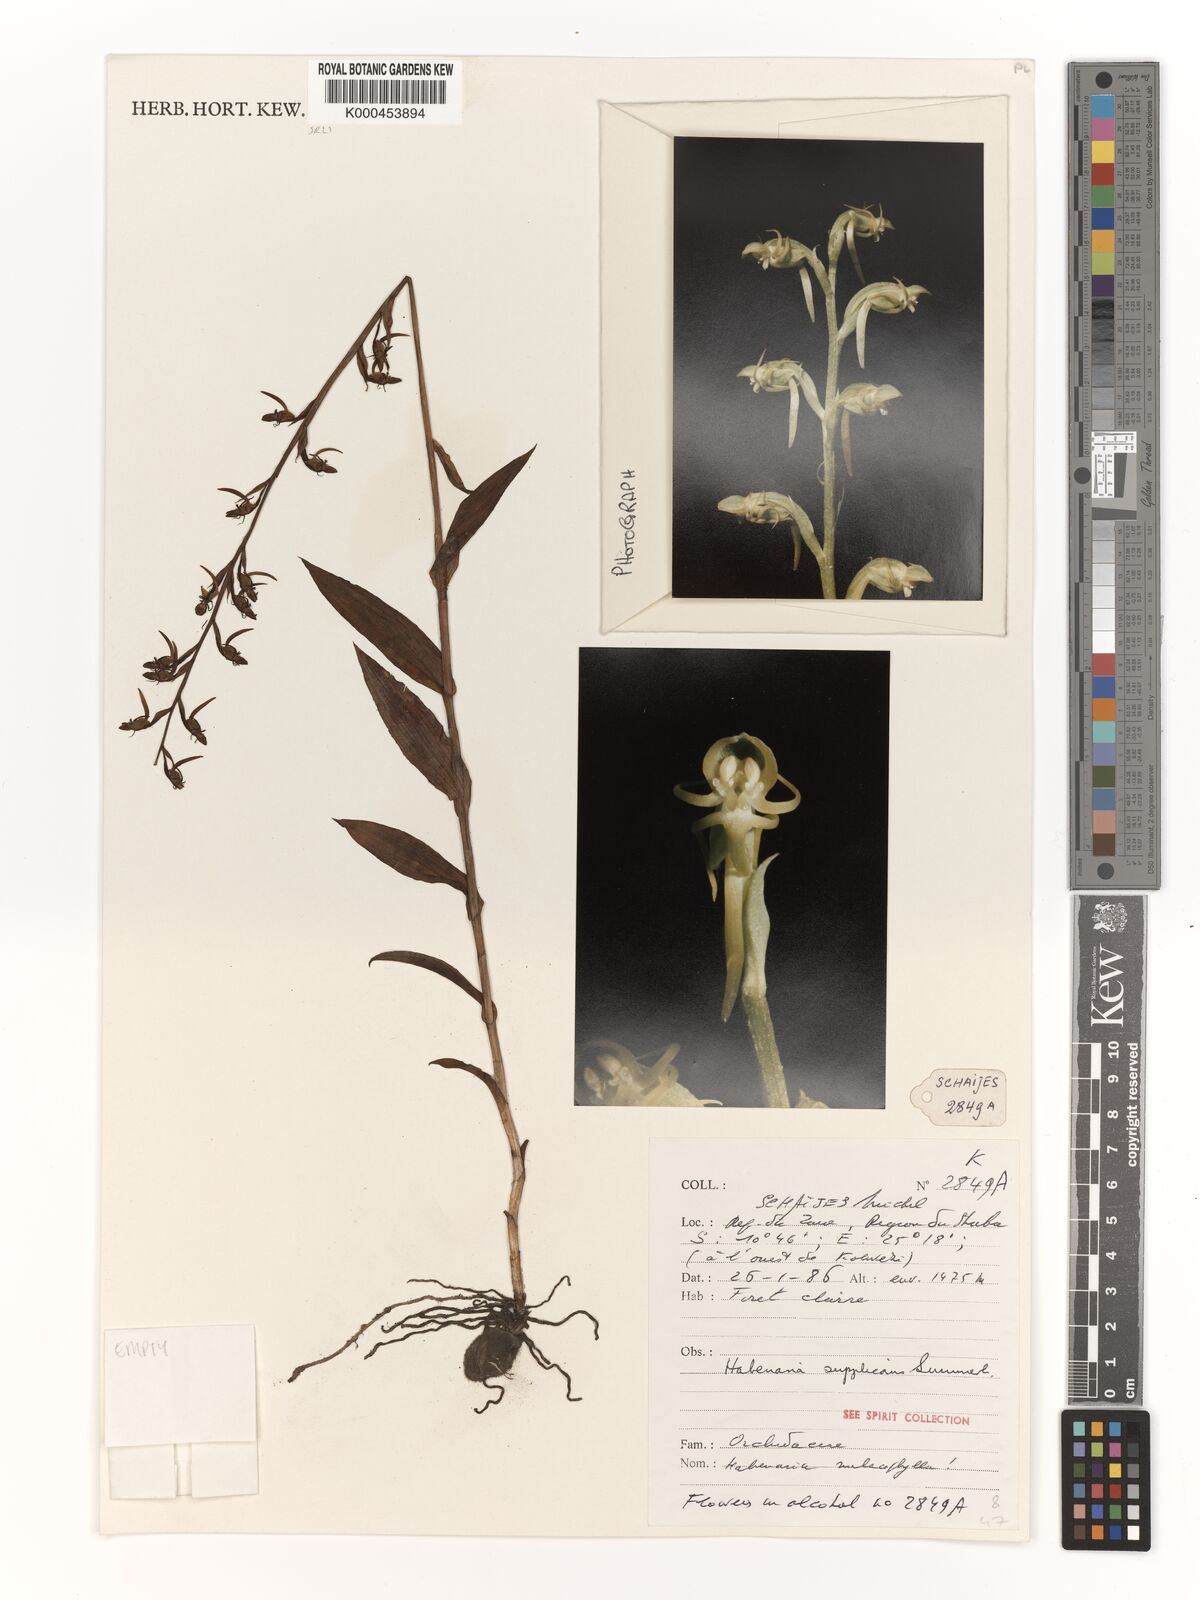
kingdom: Plantae
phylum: Tracheophyta
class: Liliopsida
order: Asparagales
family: Orchidaceae
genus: Habenaria
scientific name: Habenaria supplicans
